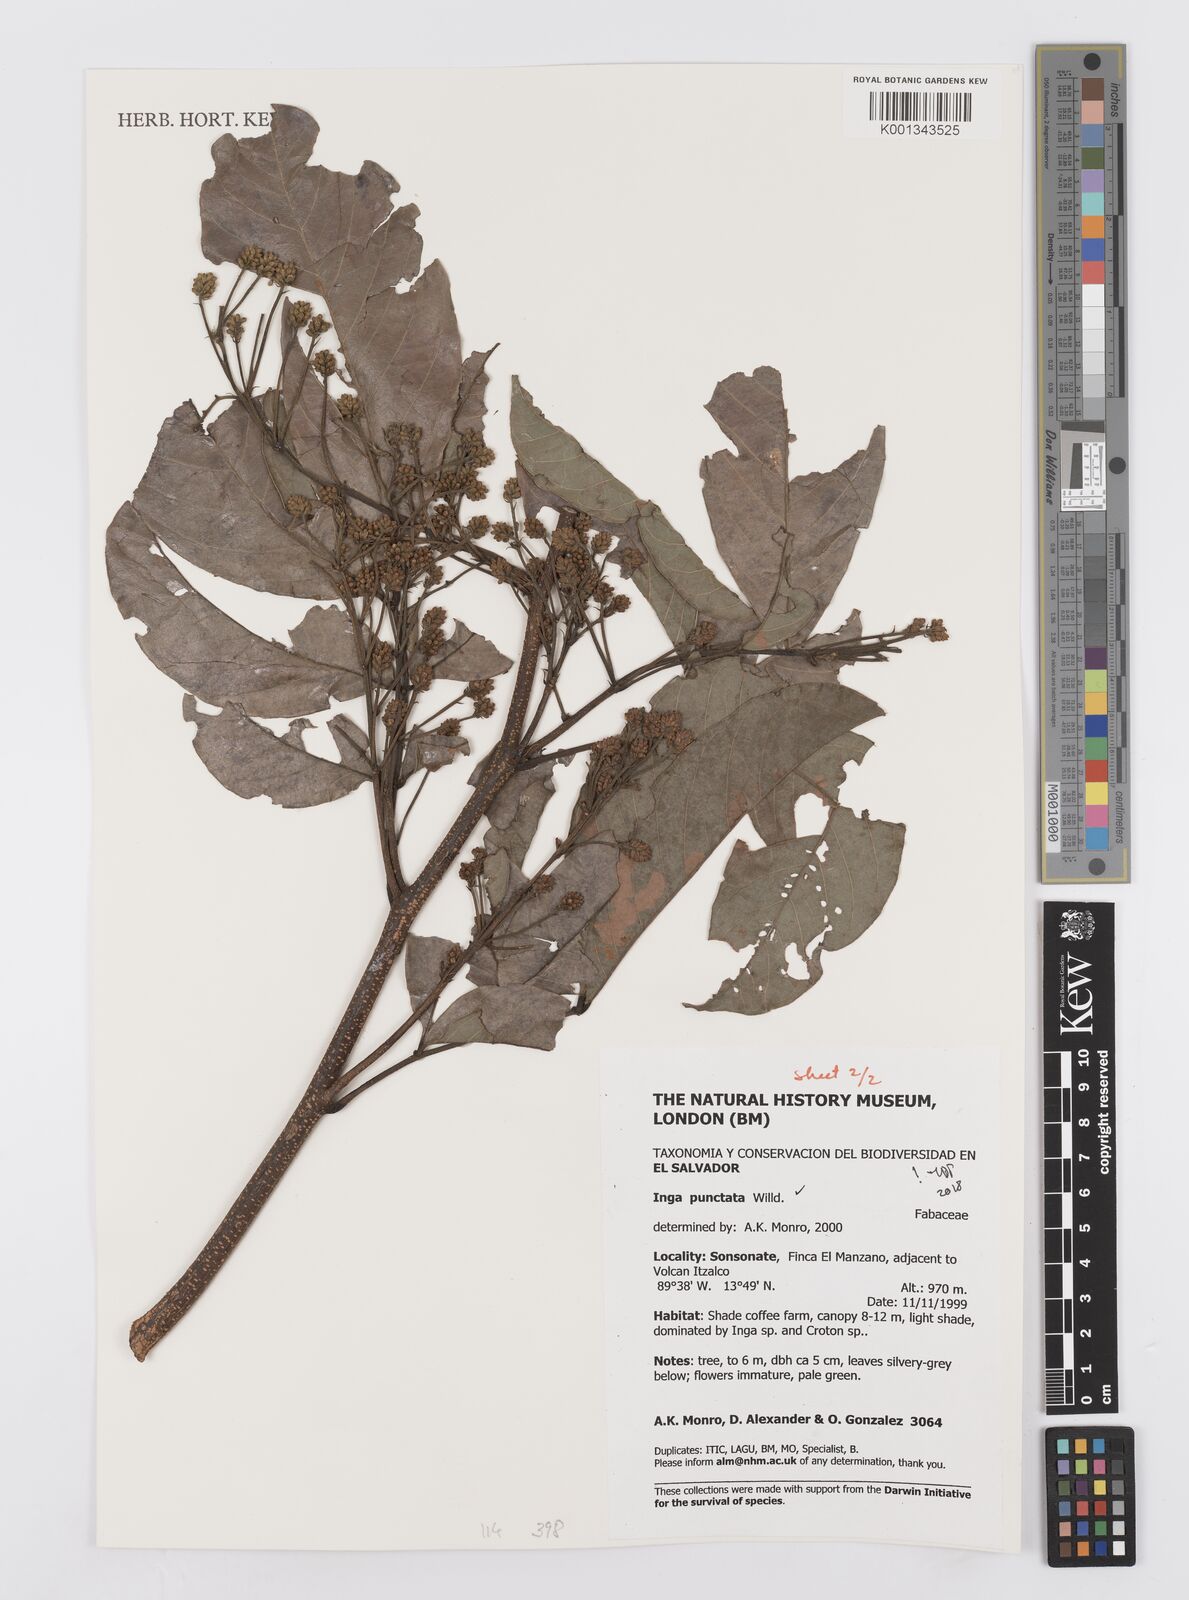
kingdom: Plantae
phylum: Tracheophyta
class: Magnoliopsida
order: Fabales
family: Fabaceae
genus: Inga
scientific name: Inga punctata
